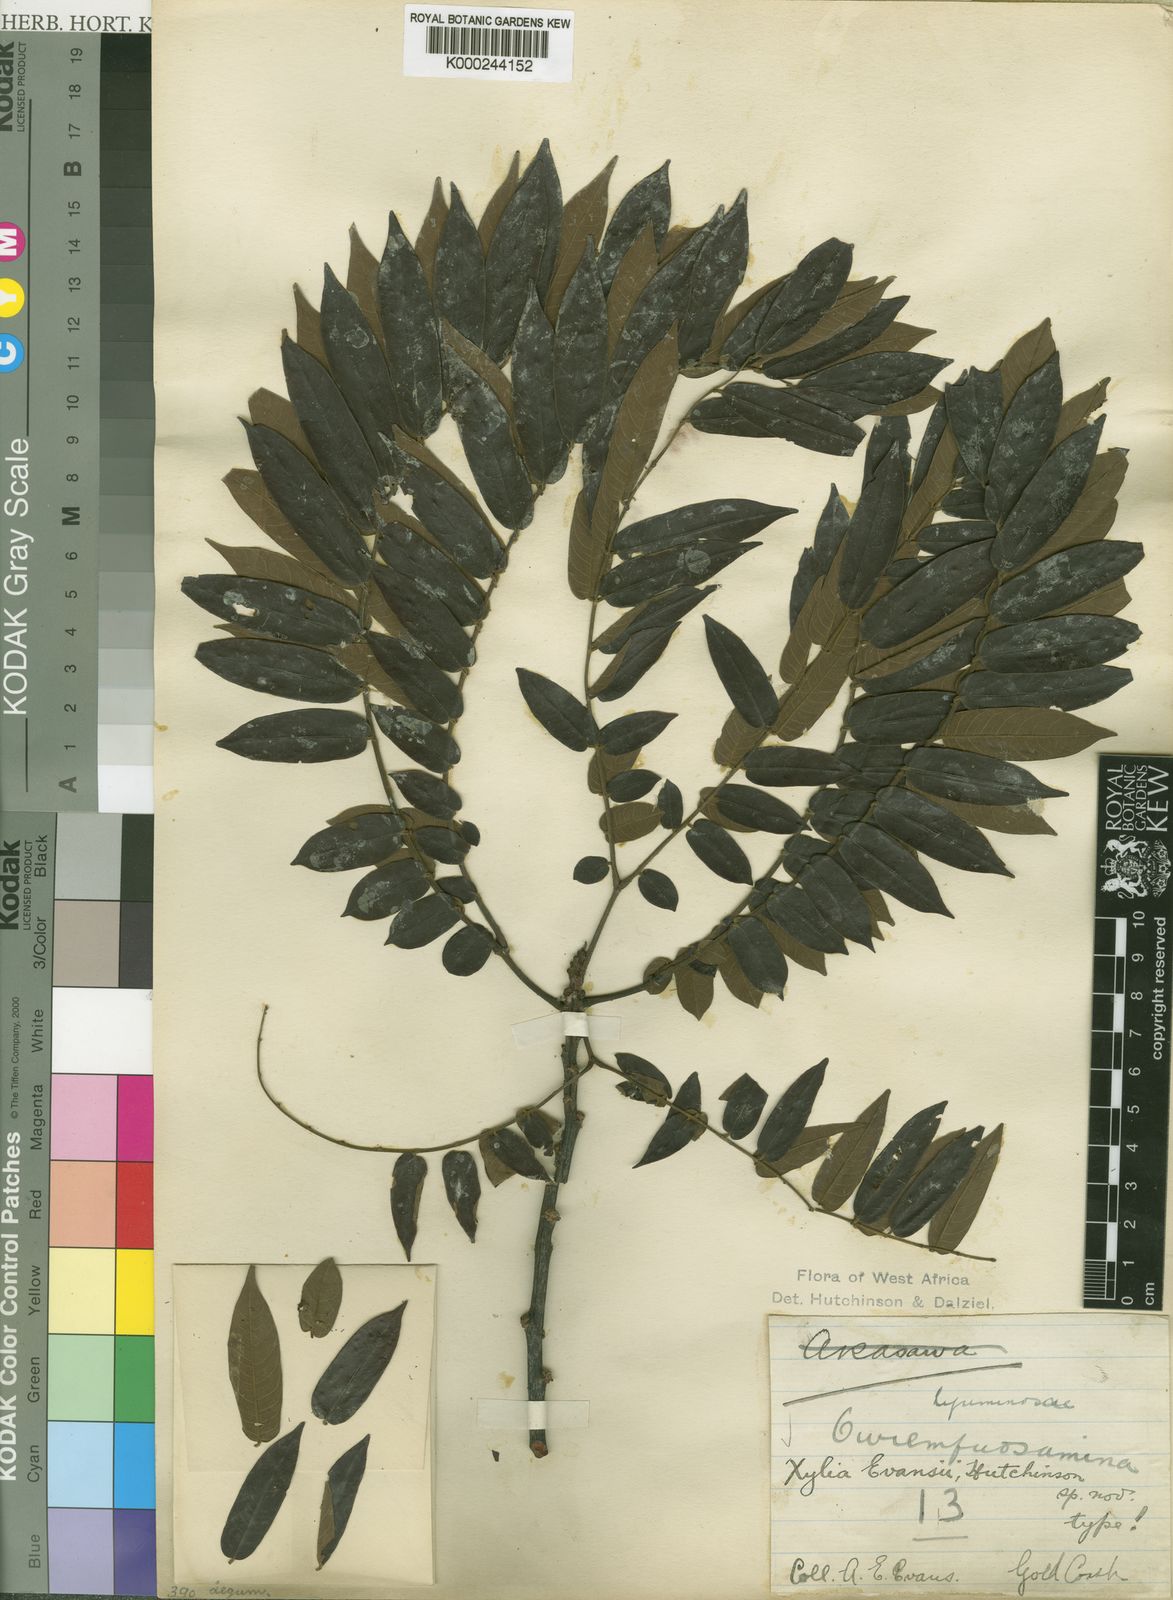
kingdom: Plantae
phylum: Tracheophyta
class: Magnoliopsida
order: Fabales
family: Fabaceae
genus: Xylia
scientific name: Xylia evansii
